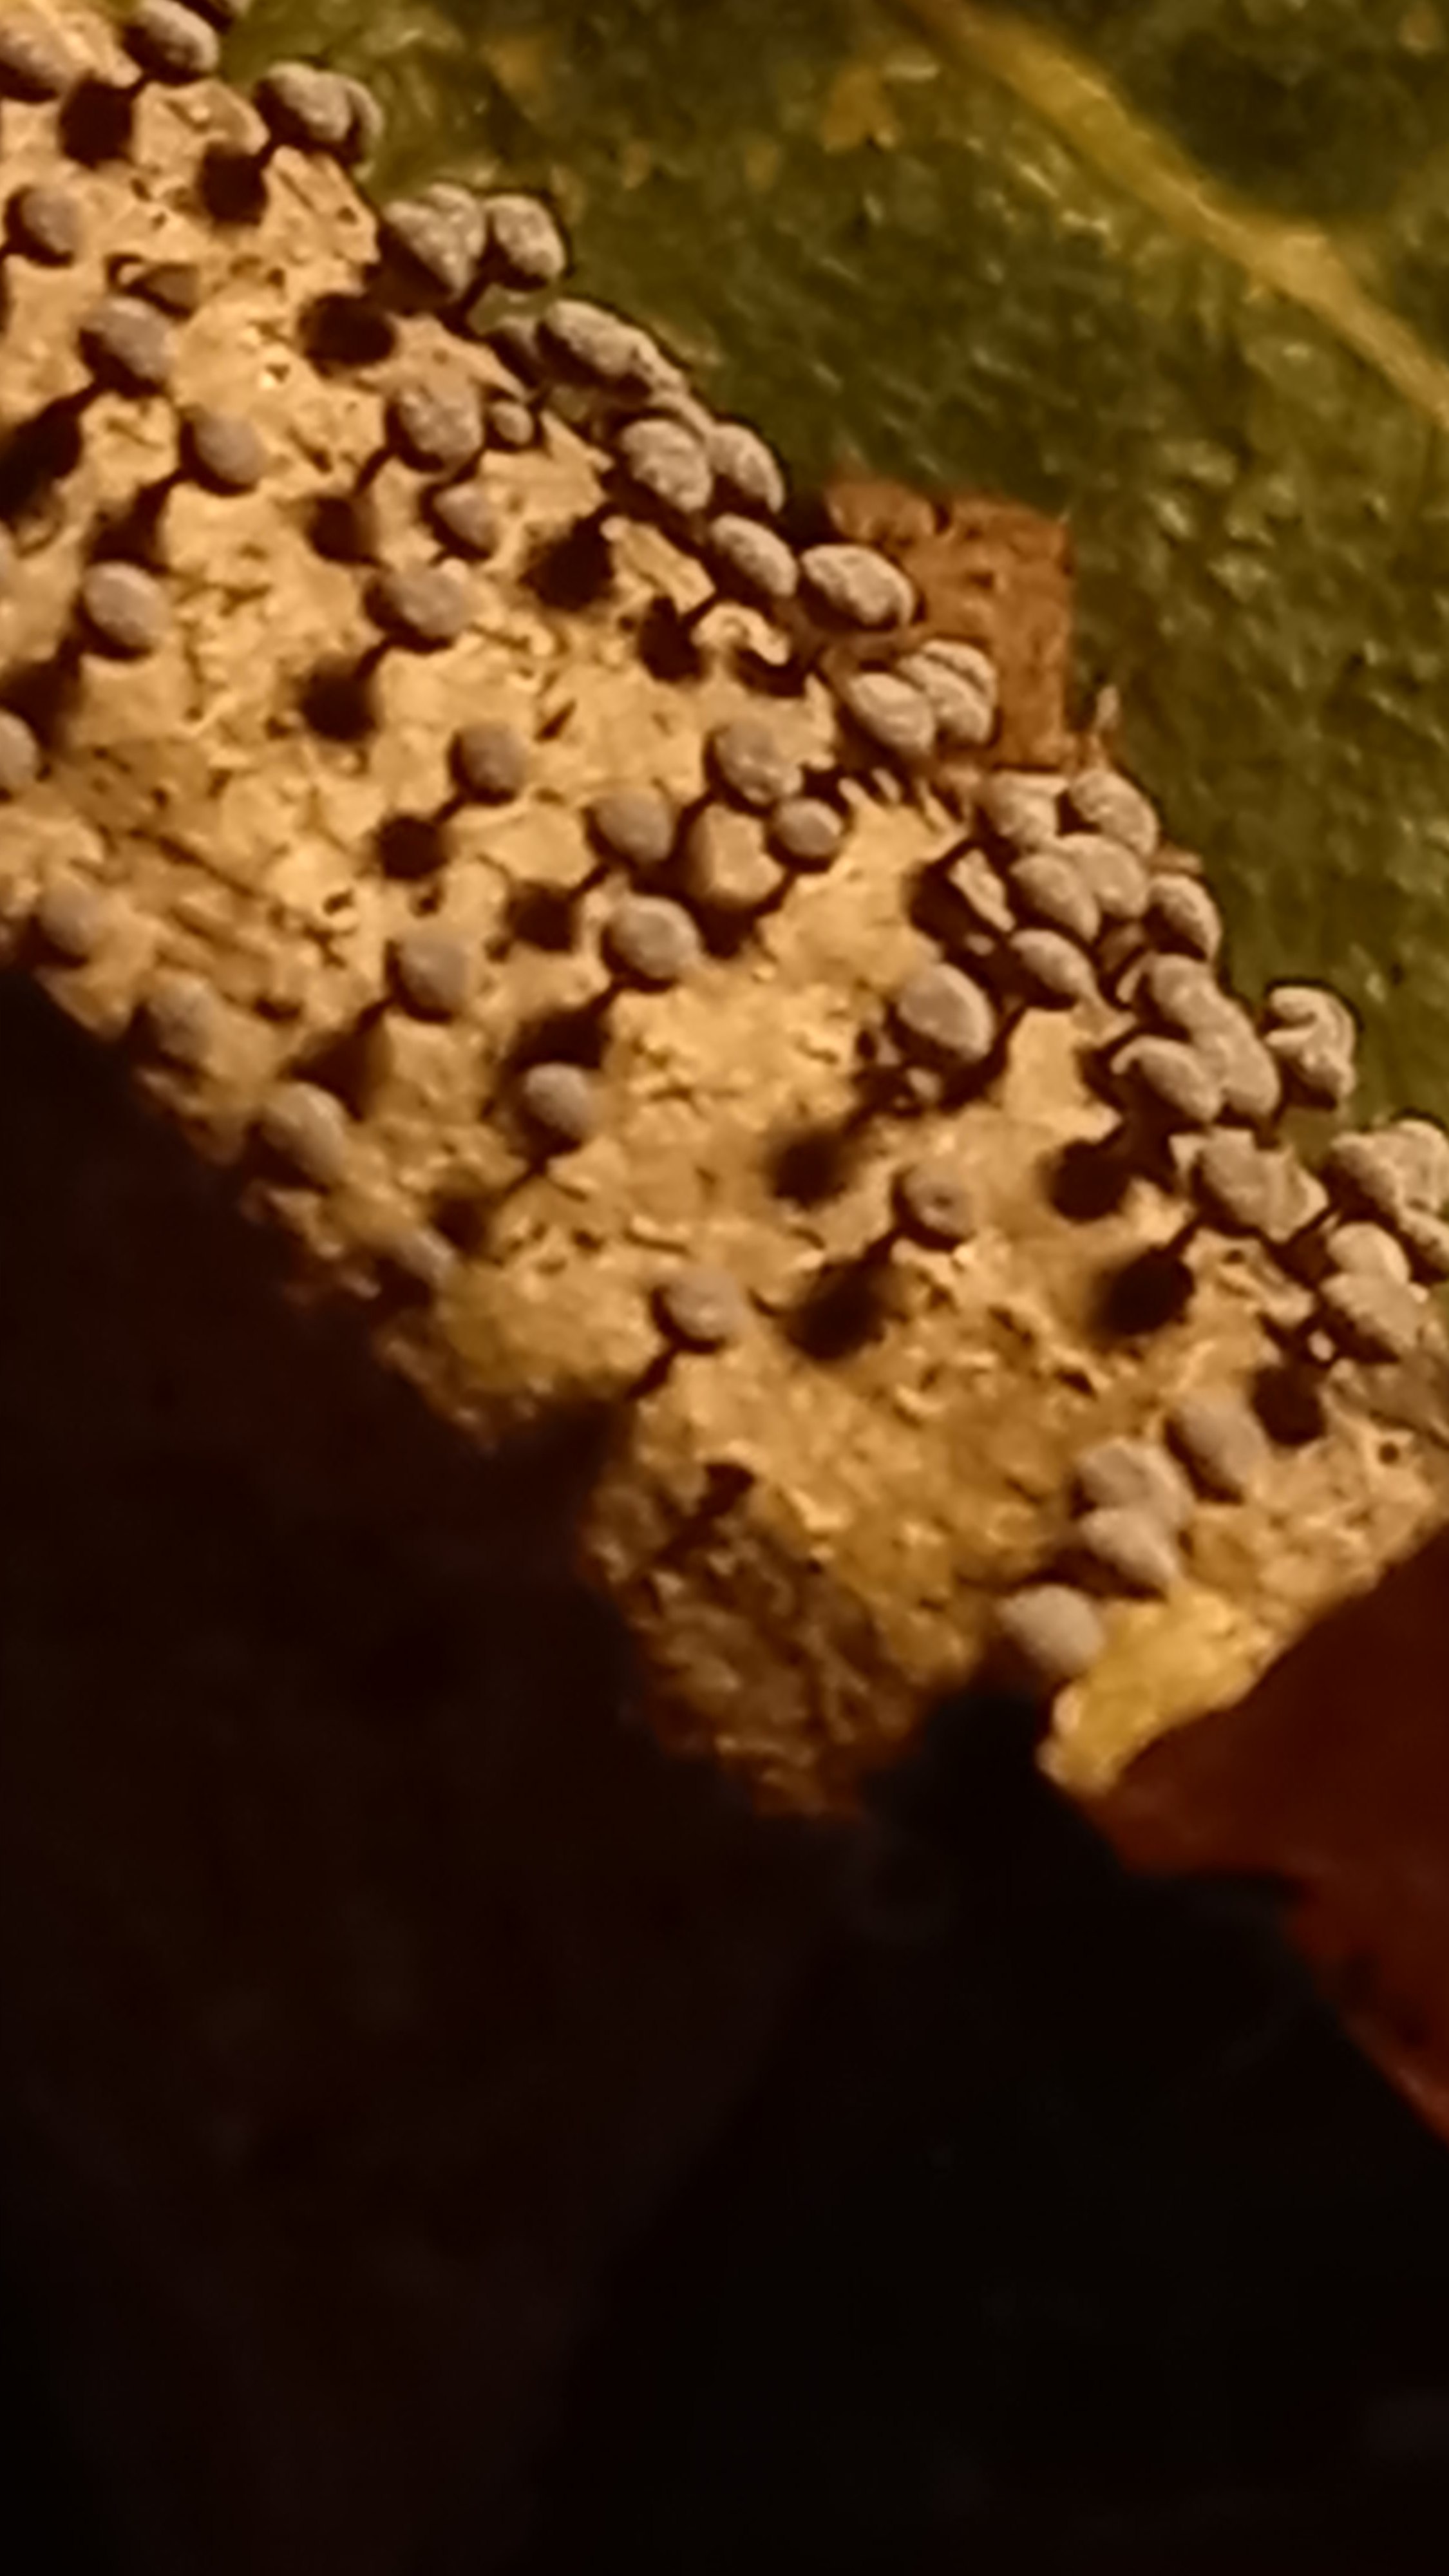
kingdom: Protozoa
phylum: Mycetozoa
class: Myxomycetes
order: Physarales
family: Physaraceae
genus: Physarum
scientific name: Physarum
